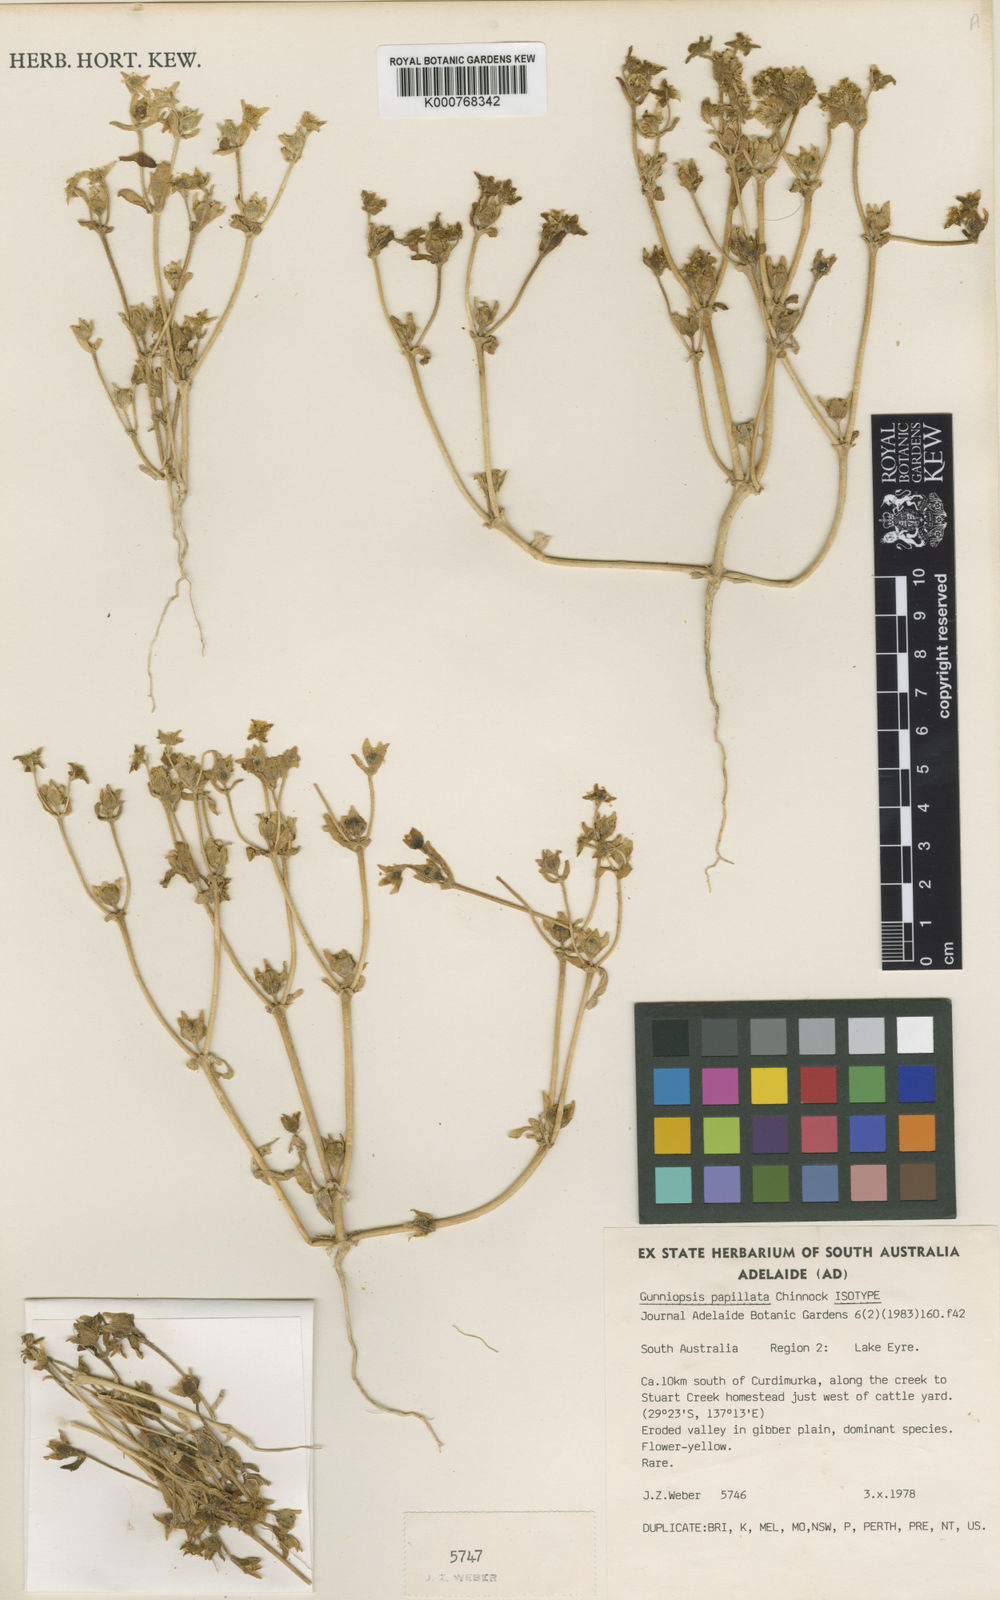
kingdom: Plantae
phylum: Tracheophyta
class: Magnoliopsida
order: Caryophyllales
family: Aizoaceae
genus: Gunniopsis
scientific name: Gunniopsis papillata
